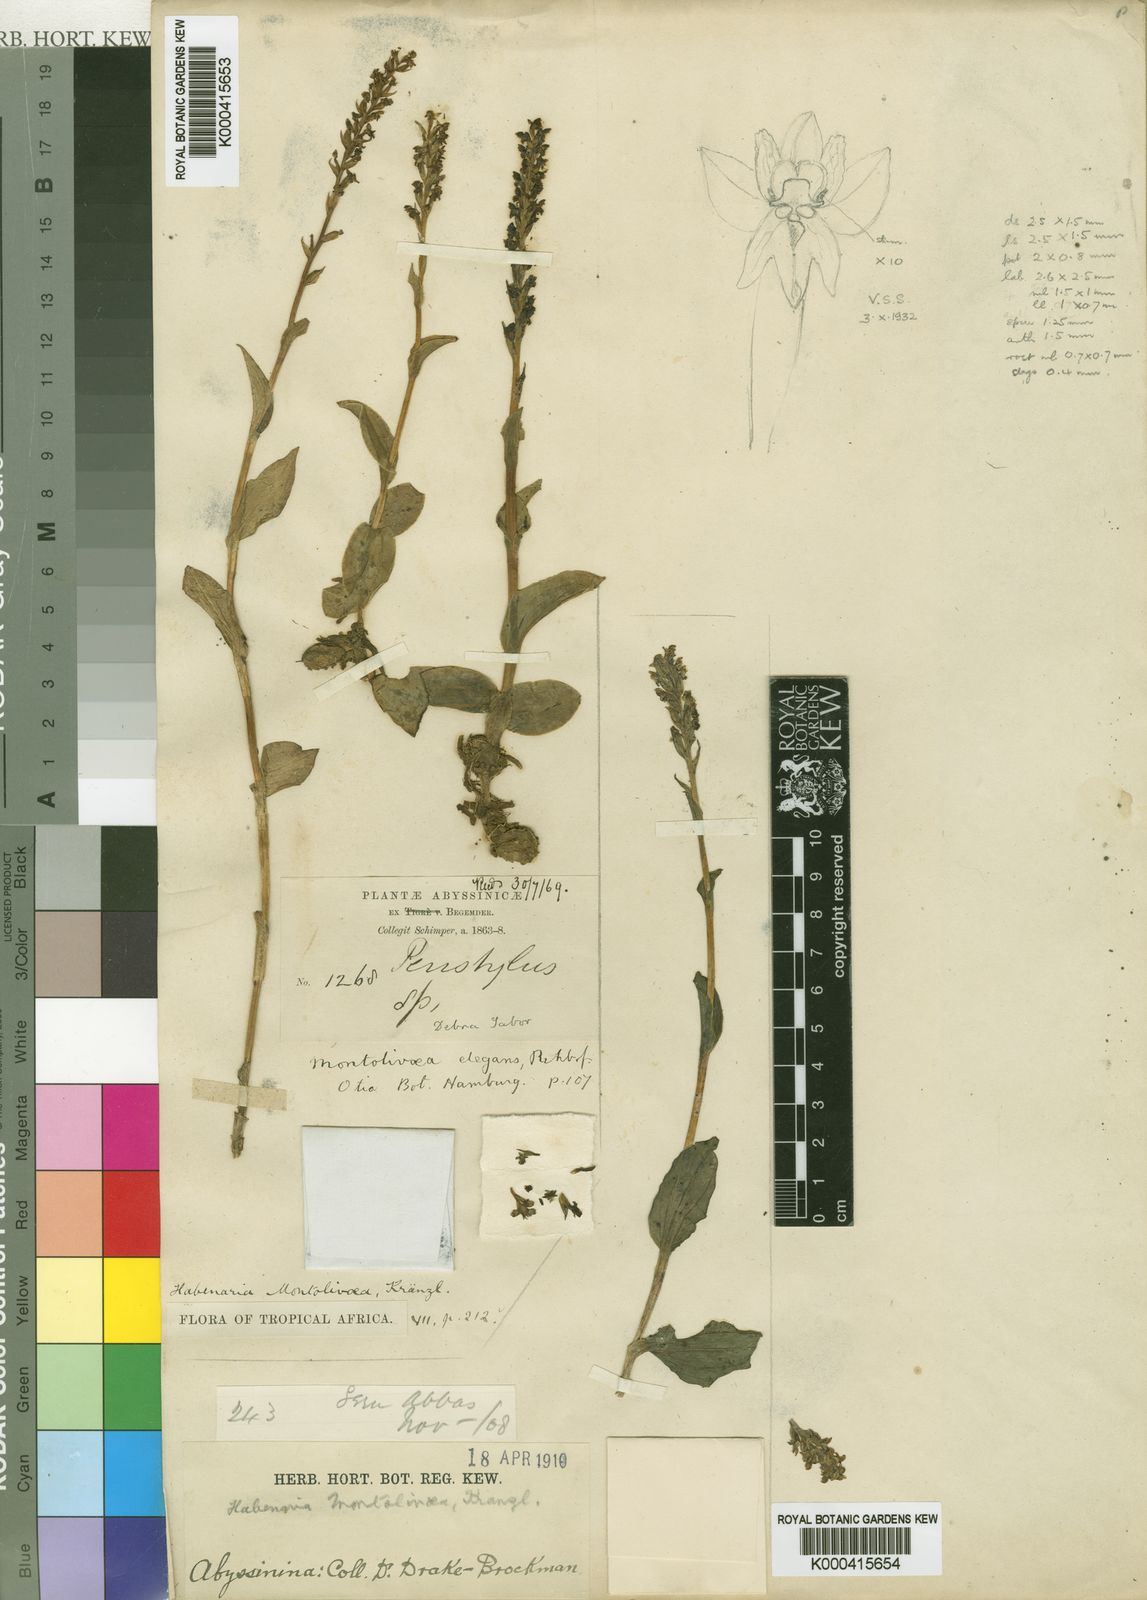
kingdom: Plantae
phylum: Tracheophyta
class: Liliopsida
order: Asparagales
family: Orchidaceae
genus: Habenaria
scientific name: Habenaria montolivaea
